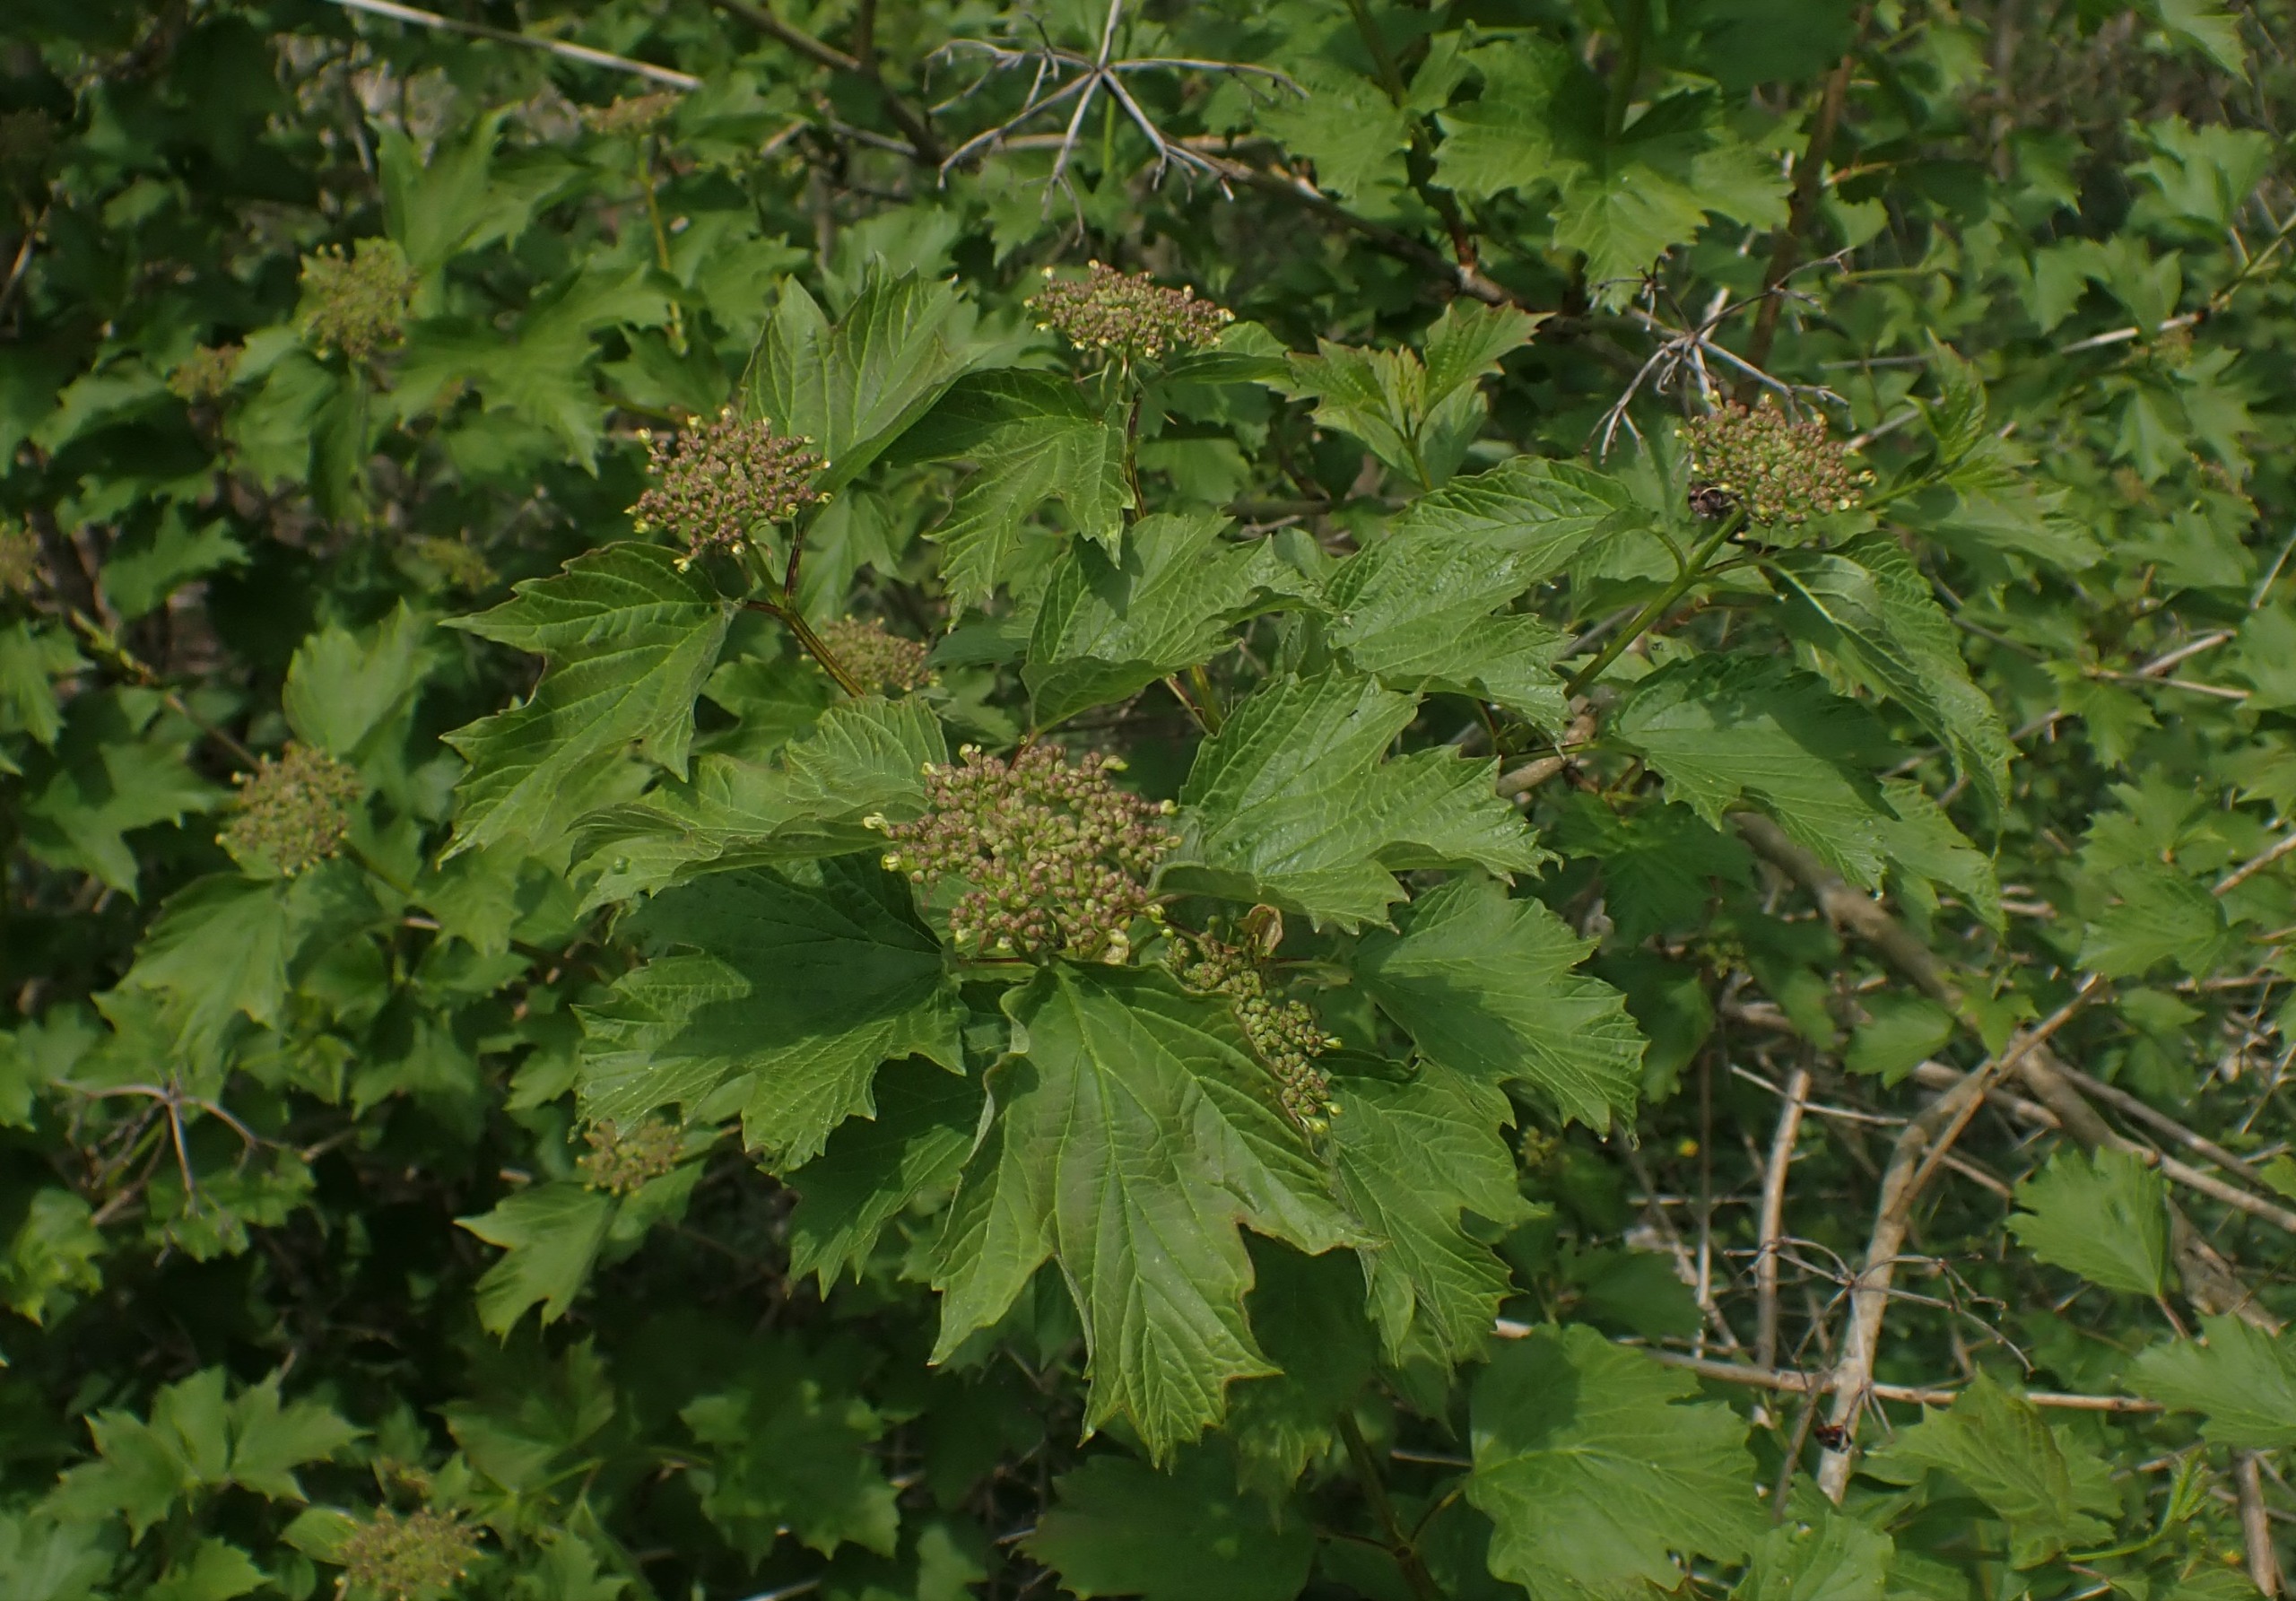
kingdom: Plantae
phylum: Tracheophyta
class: Magnoliopsida
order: Dipsacales
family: Viburnaceae
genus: Viburnum
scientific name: Viburnum opulus
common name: Kvalkved
